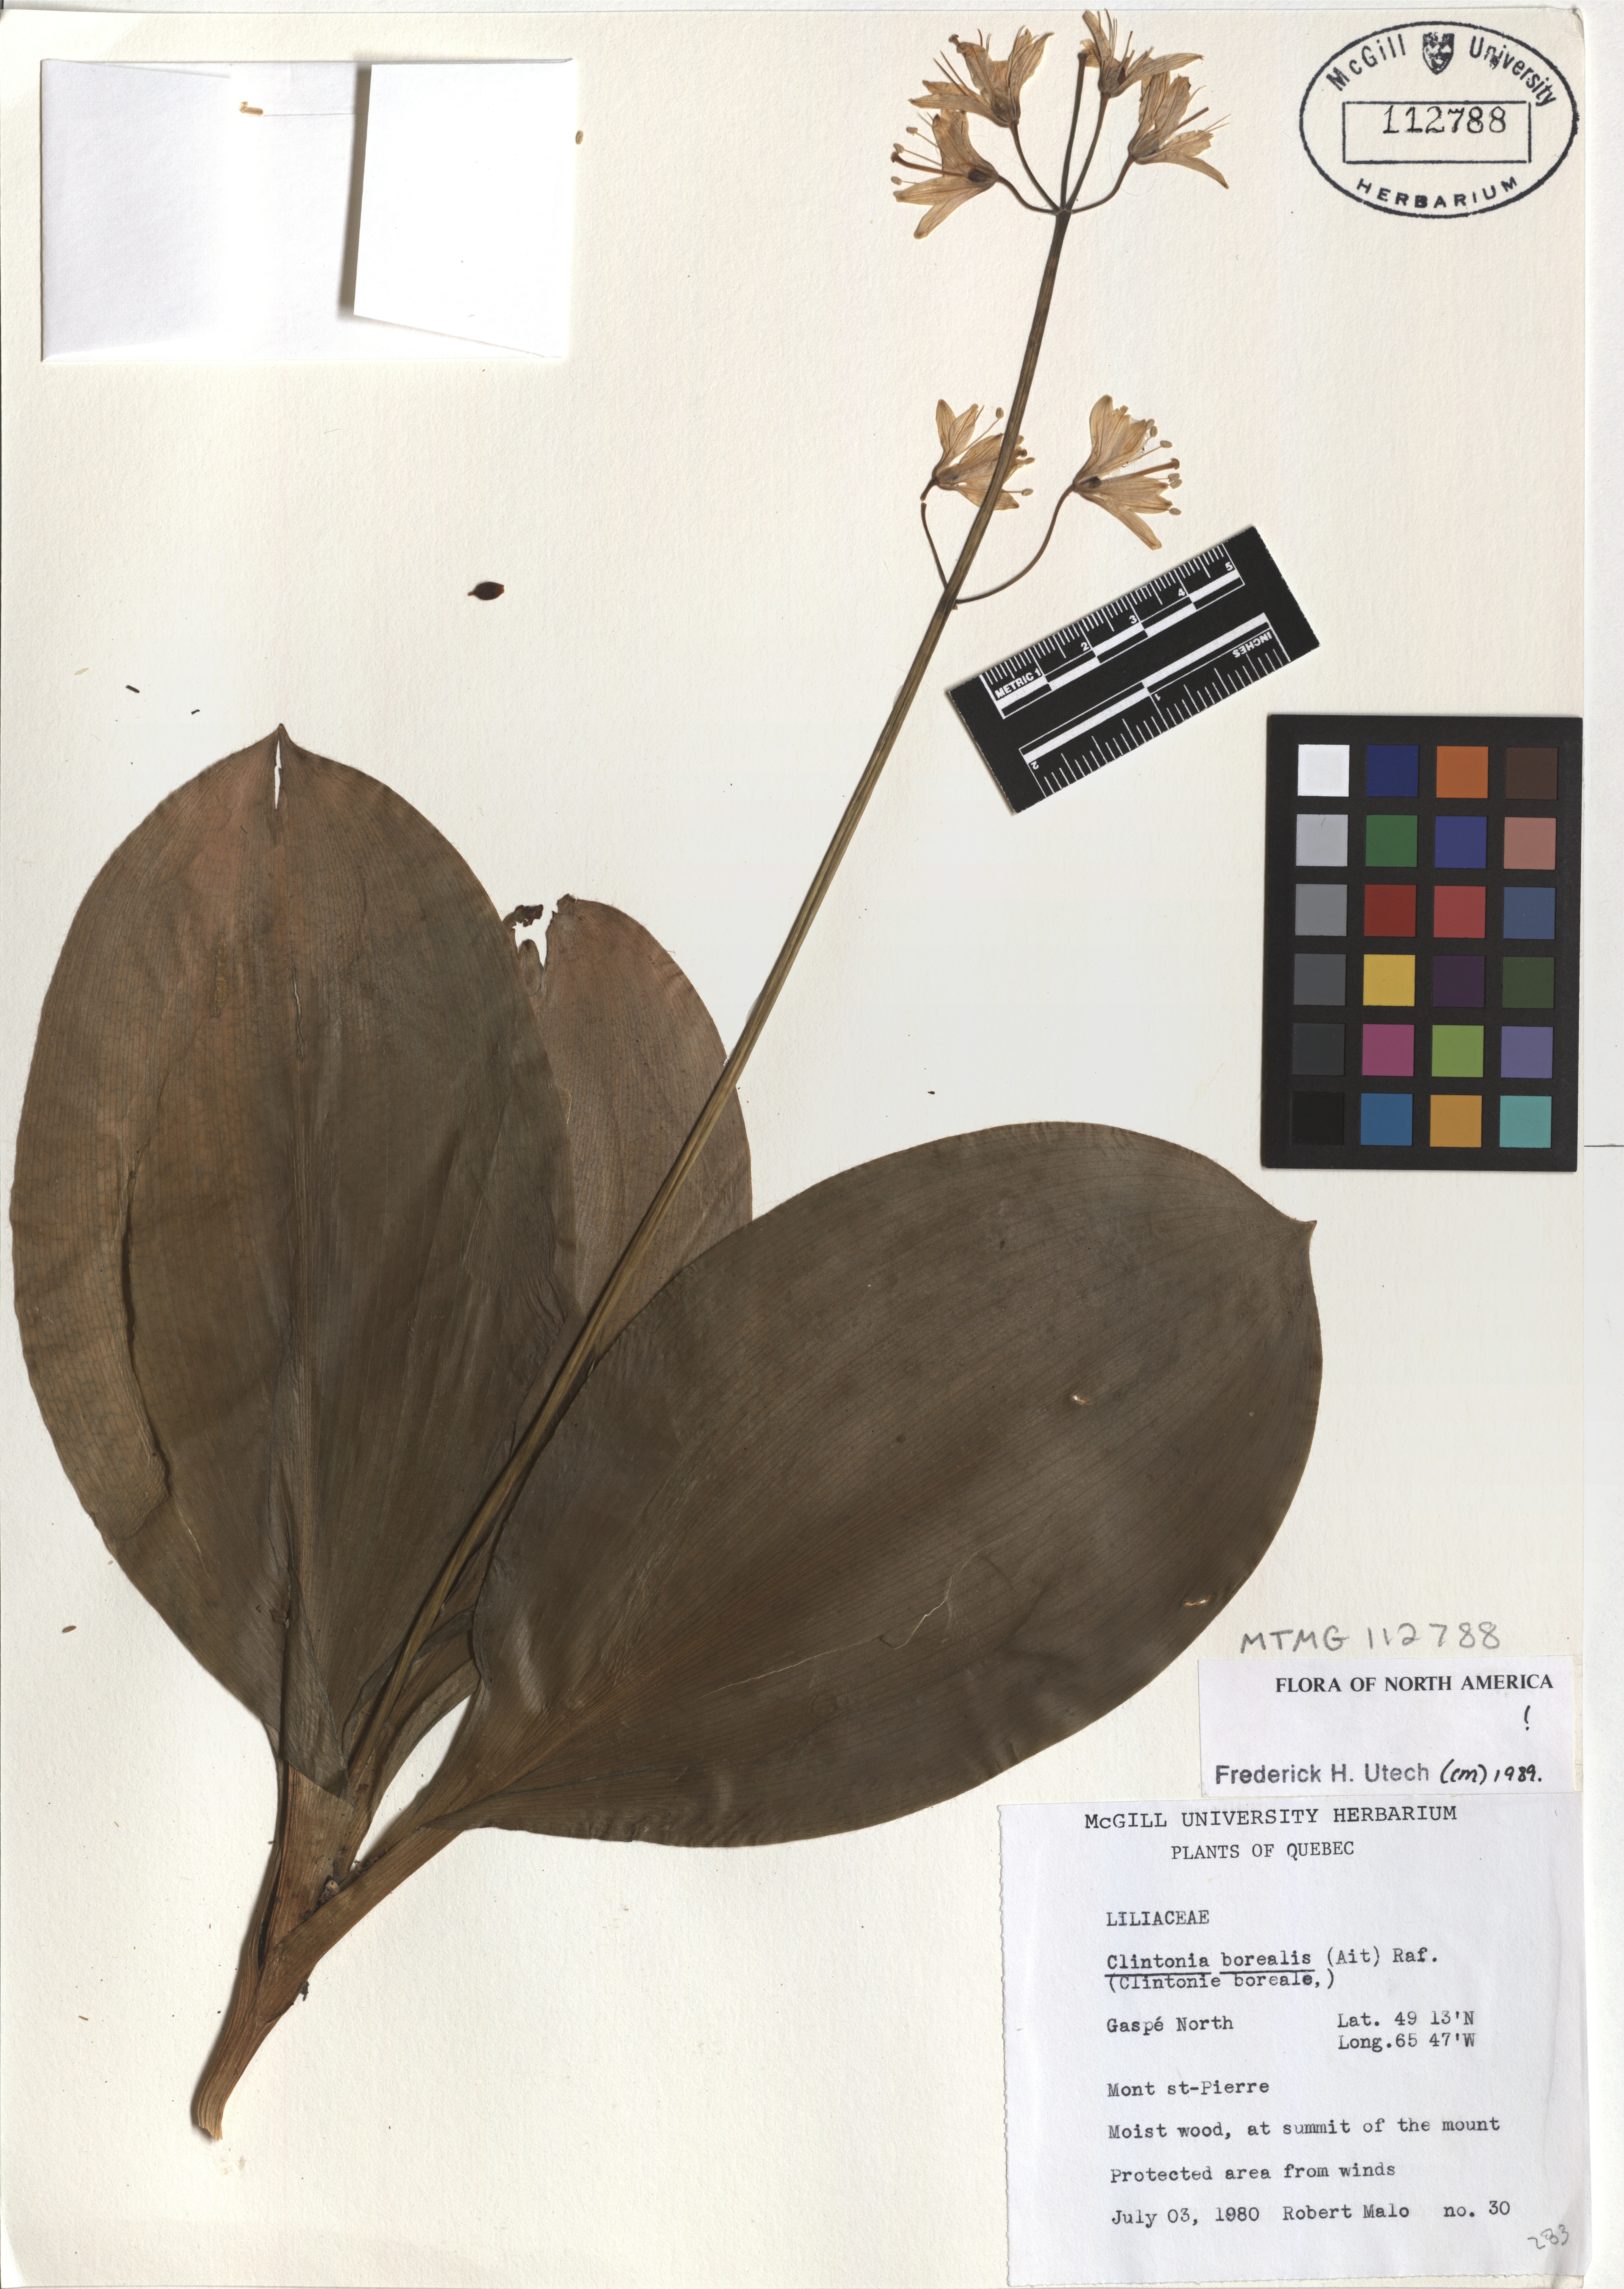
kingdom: Plantae
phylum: Tracheophyta
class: Liliopsida
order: Liliales
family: Liliaceae
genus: Clintonia
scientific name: Clintonia borealis
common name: Yellow clintonia
